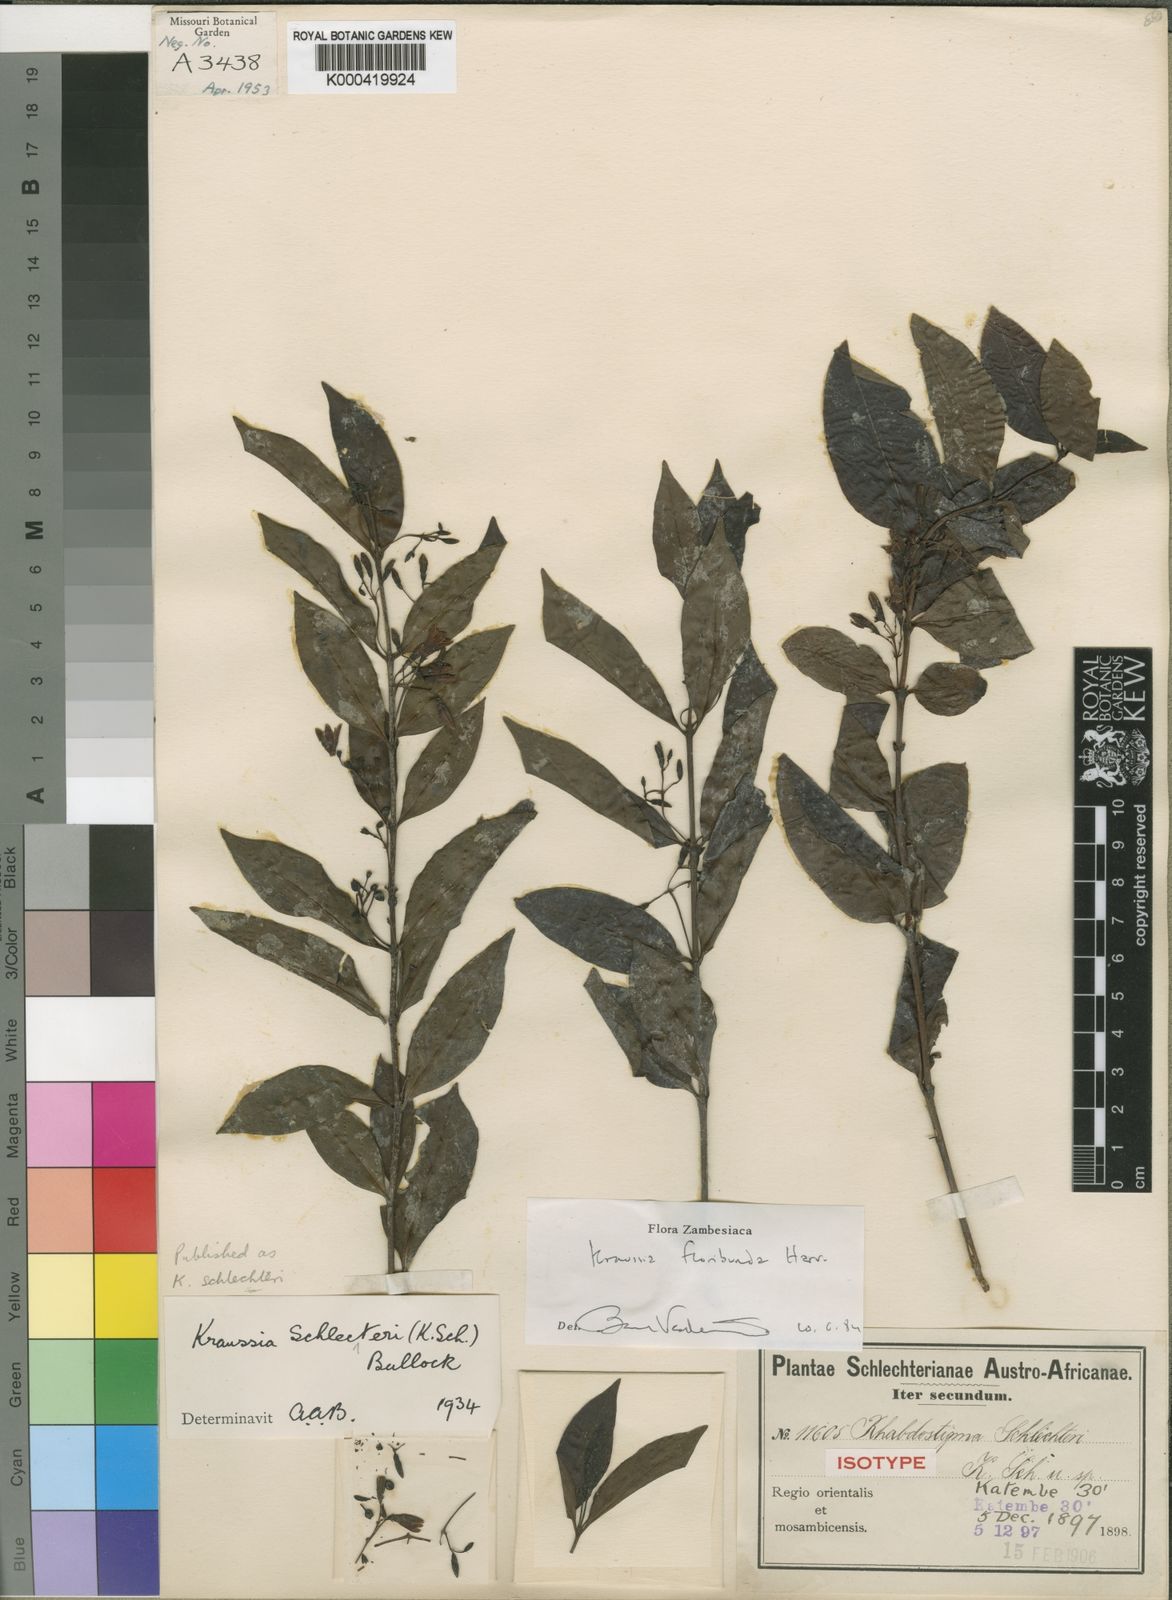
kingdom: Plantae
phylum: Tracheophyta
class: Magnoliopsida
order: Gentianales
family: Rubiaceae
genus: Kraussia
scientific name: Kraussia floribunda
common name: Rhino-coffee
